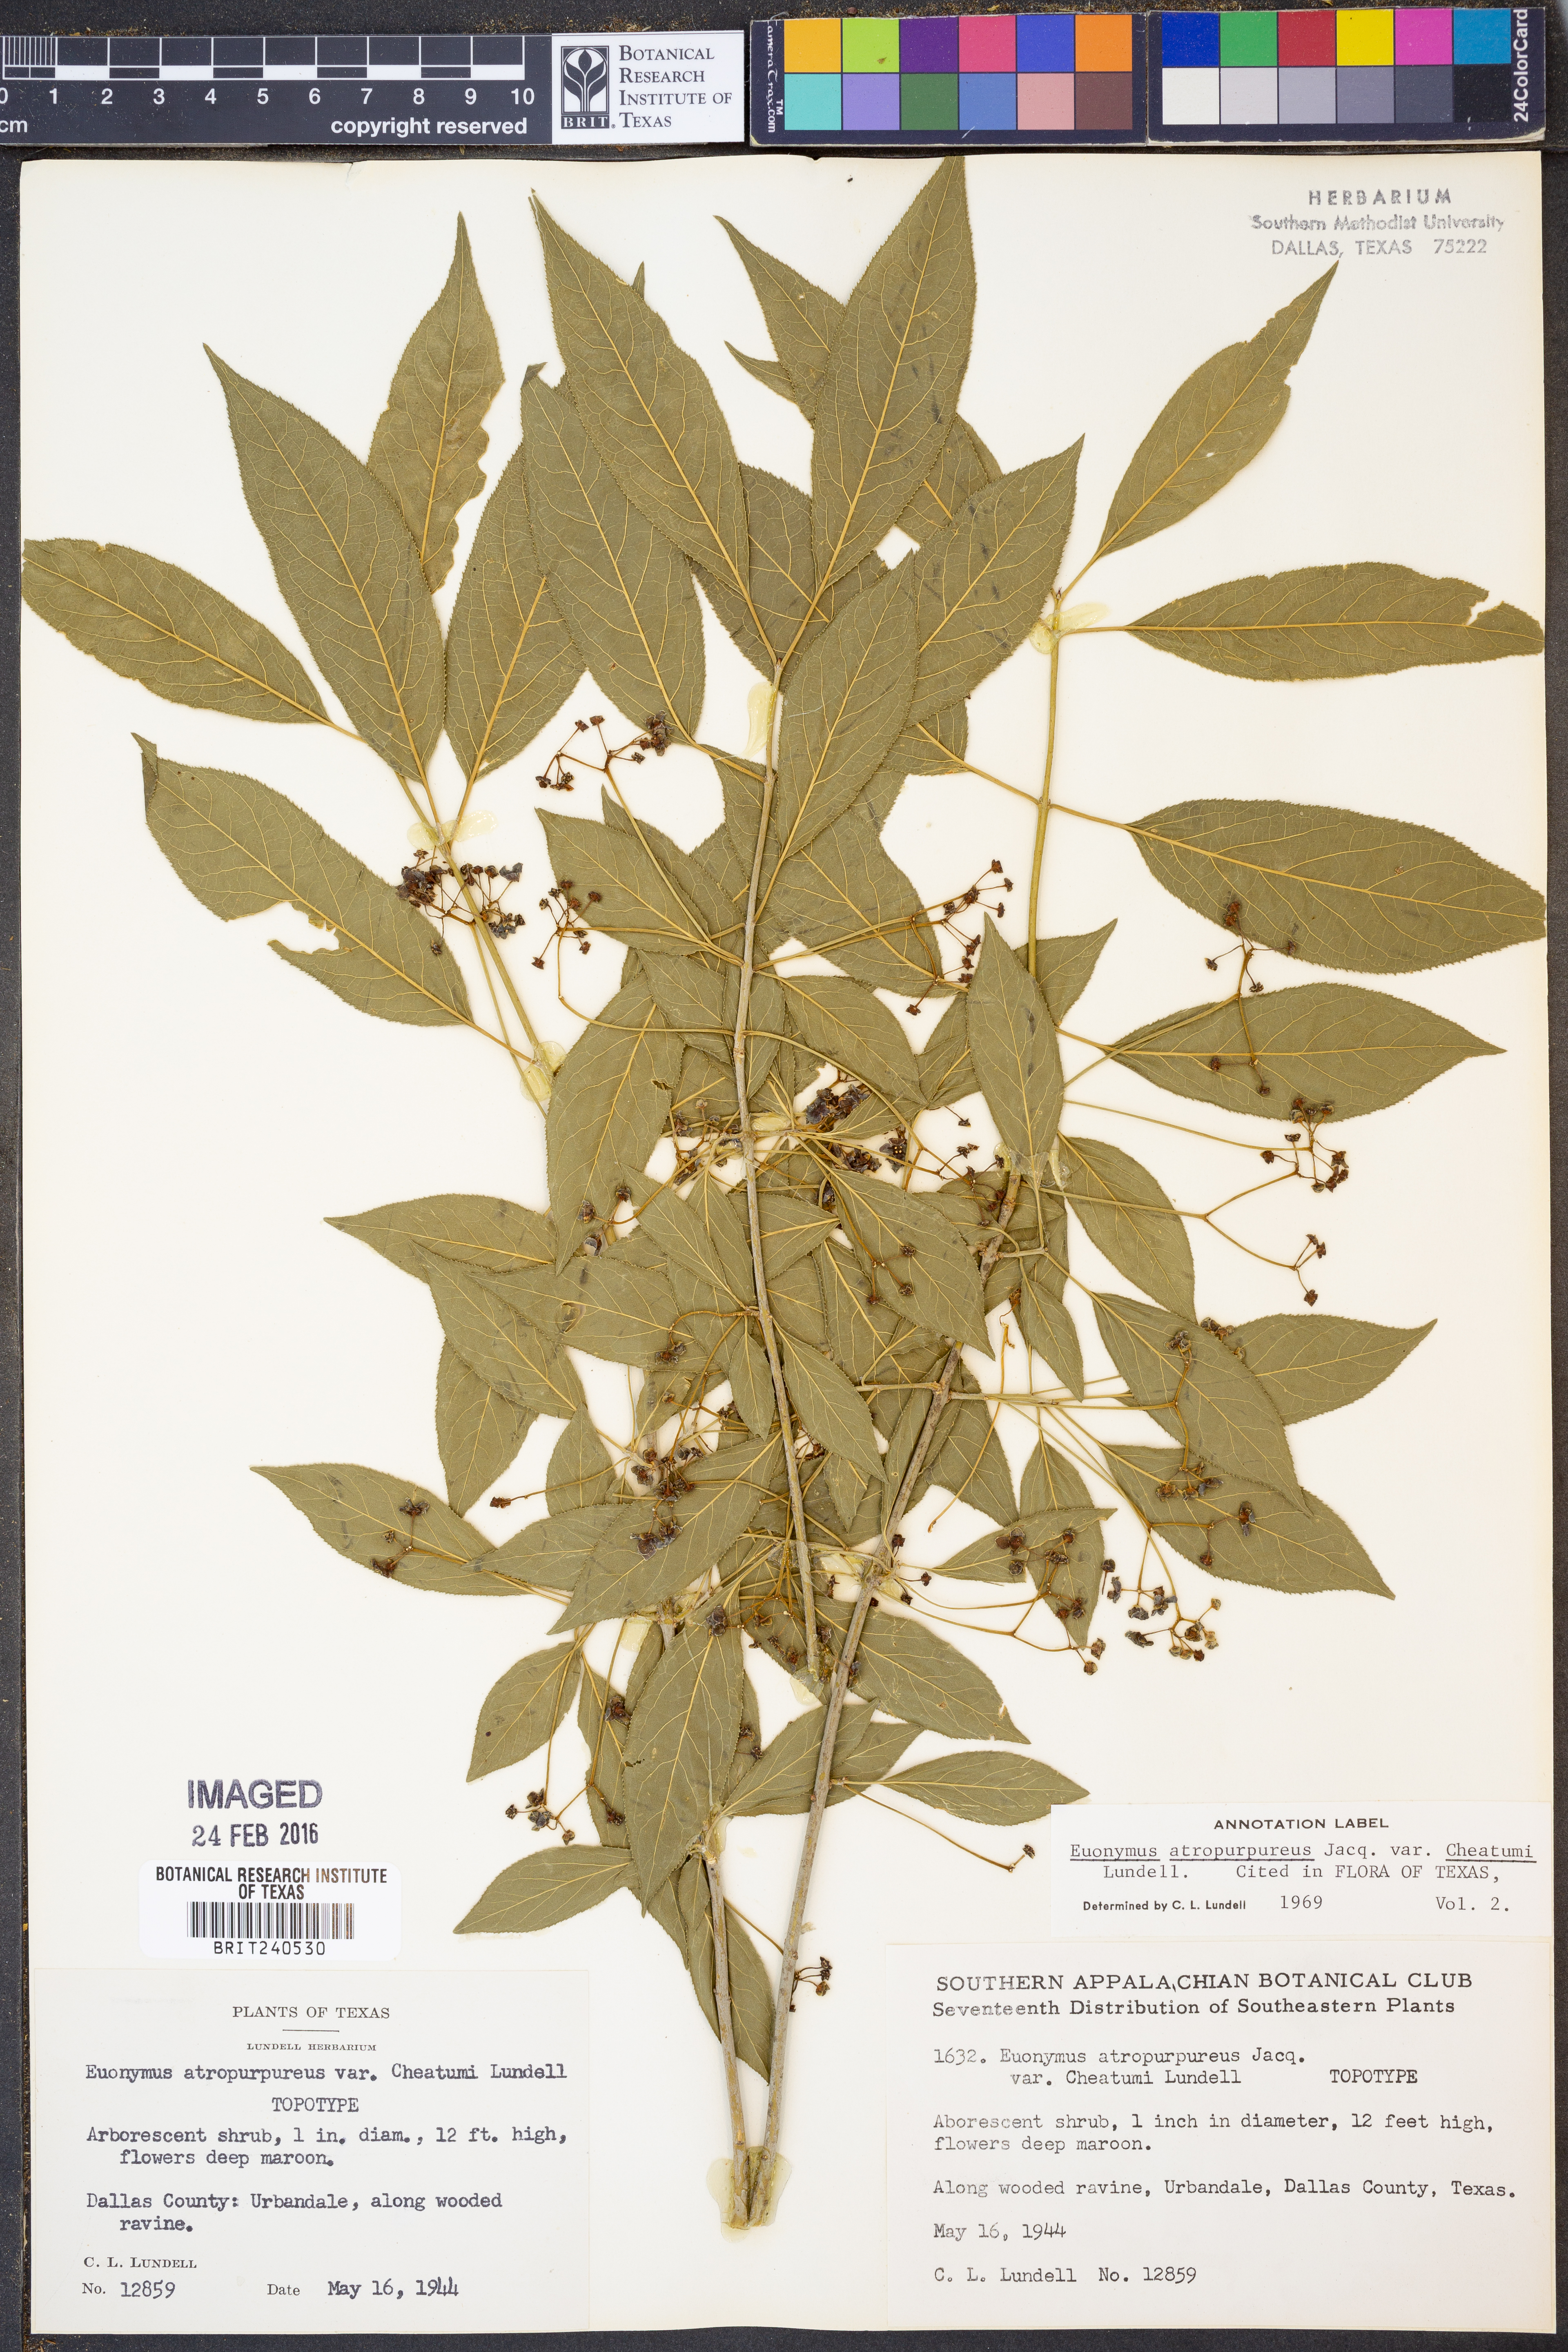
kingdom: Plantae
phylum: Tracheophyta
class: Magnoliopsida
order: Celastrales
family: Celastraceae
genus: Euonymus
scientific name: Euonymus atropurpureus
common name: Eastern wahoo
